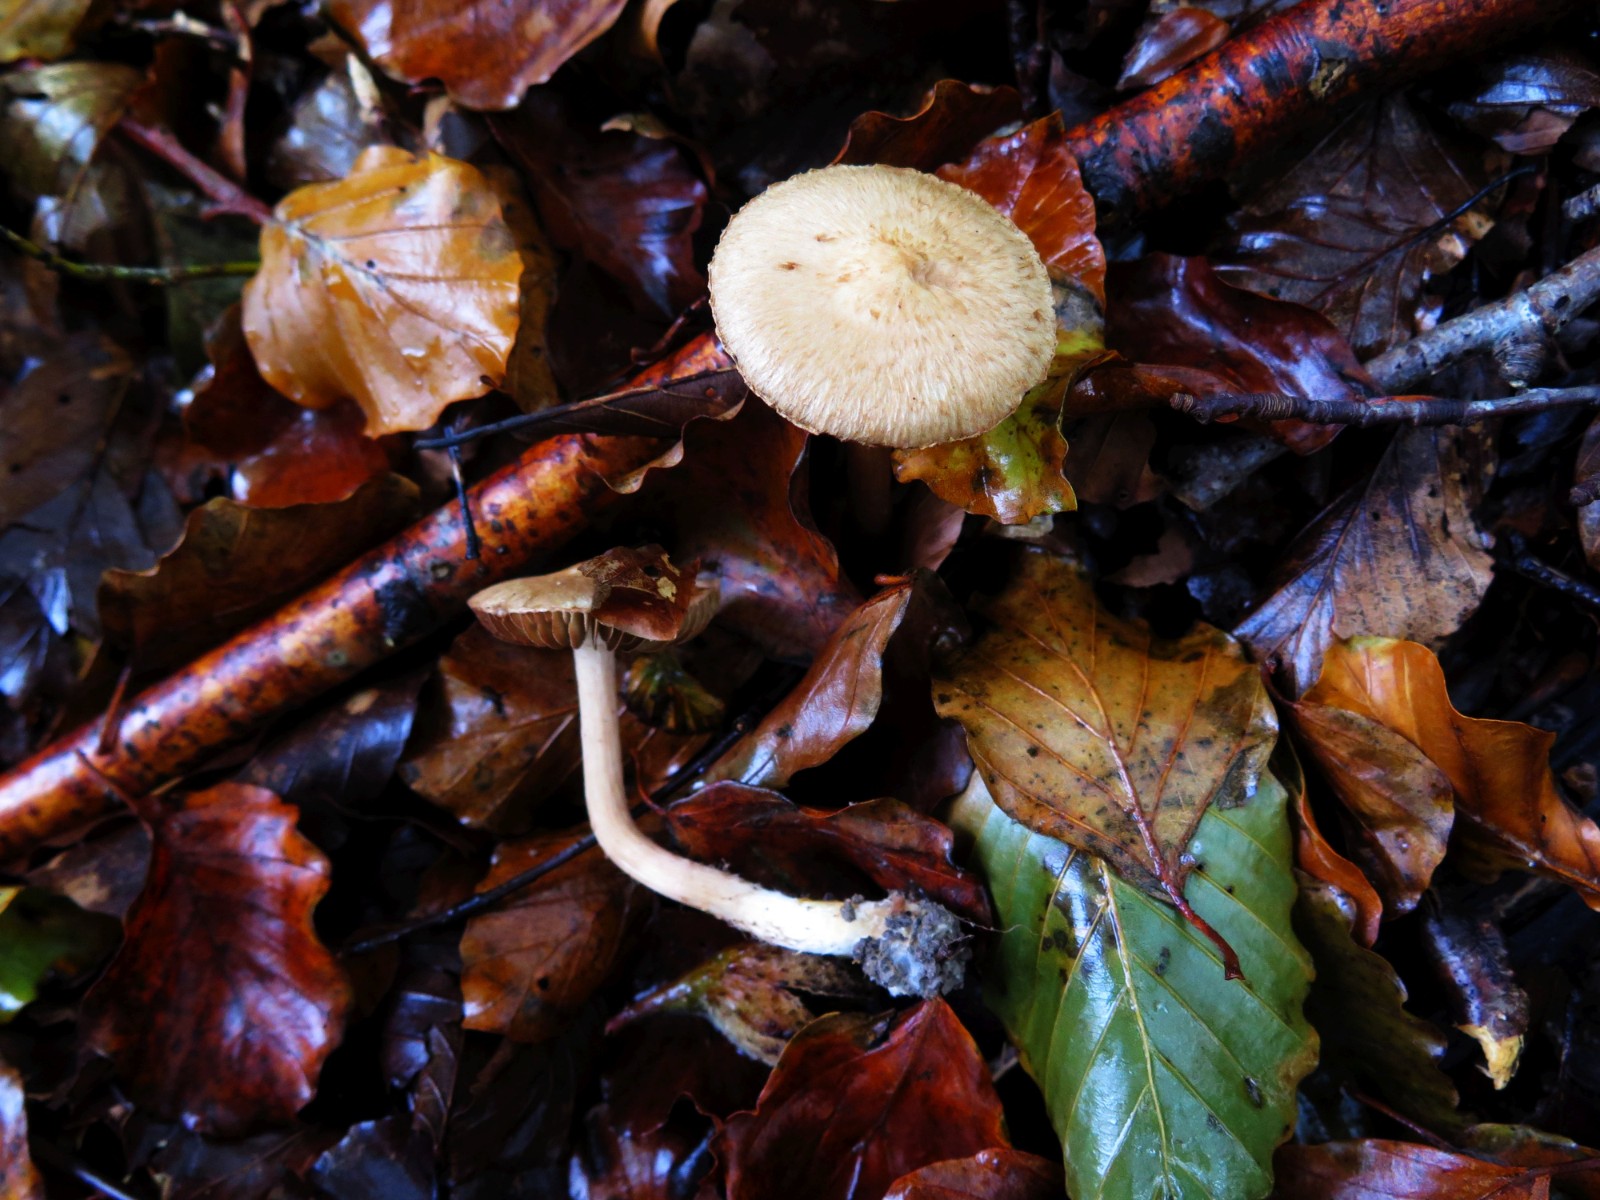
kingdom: Fungi
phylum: Basidiomycota
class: Agaricomycetes
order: Agaricales
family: Inocybaceae
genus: Inosperma
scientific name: Inosperma bongardii
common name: Bongards trævlhat
